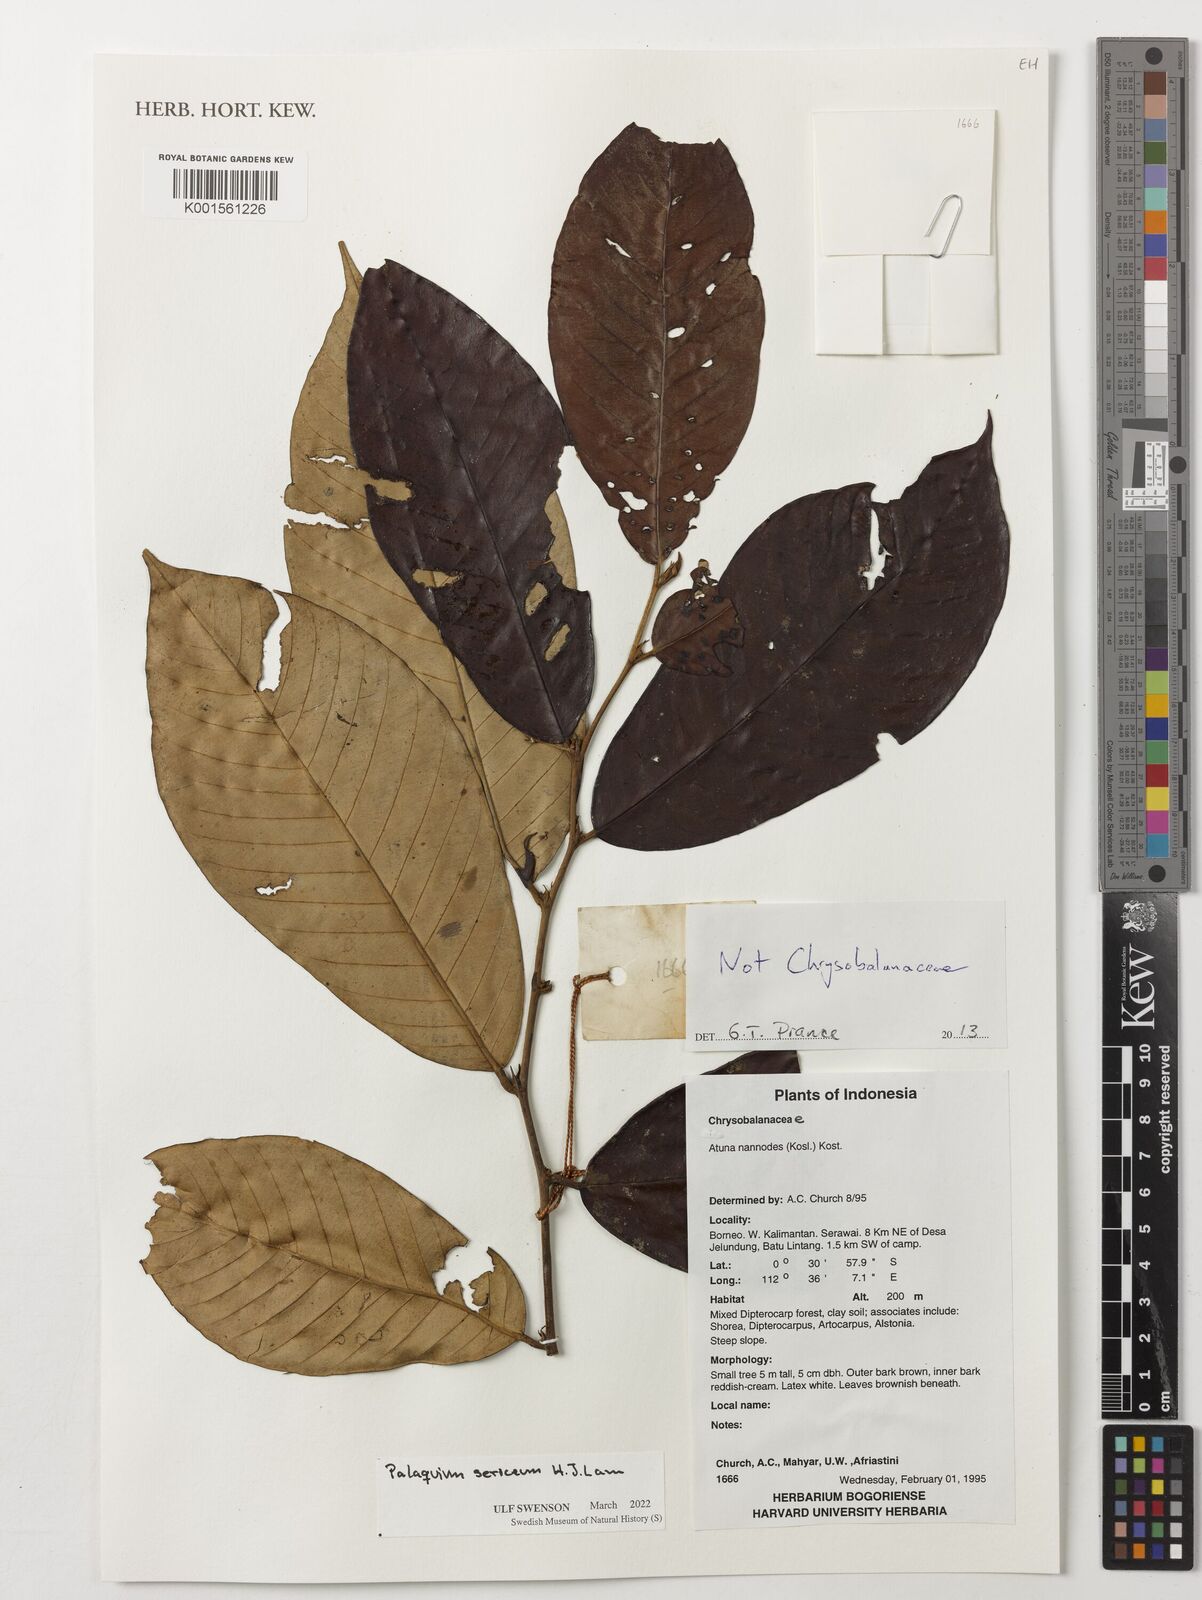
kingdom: Plantae
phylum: Tracheophyta
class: Magnoliopsida
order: Ericales
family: Sapotaceae
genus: Palaquium
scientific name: Palaquium sericeum
